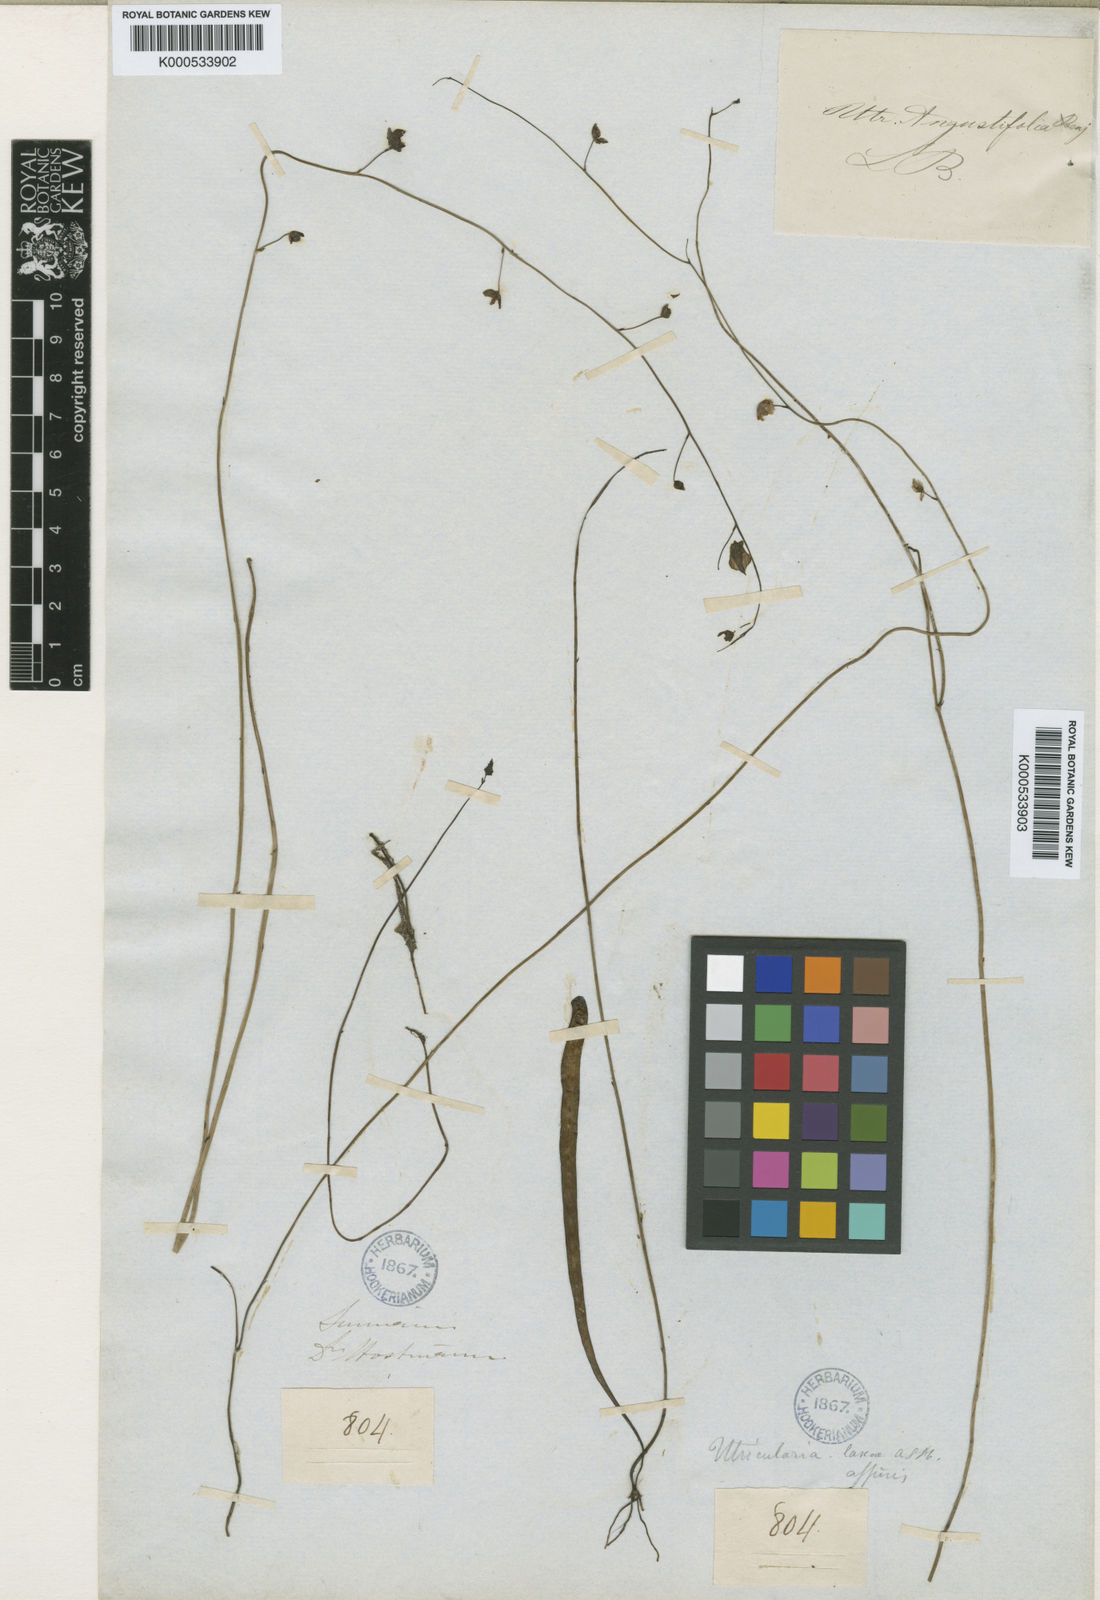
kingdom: Plantae
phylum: Tracheophyta
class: Magnoliopsida
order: Lamiales
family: Lentibulariaceae
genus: Utricularia
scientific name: Utricularia hispida
